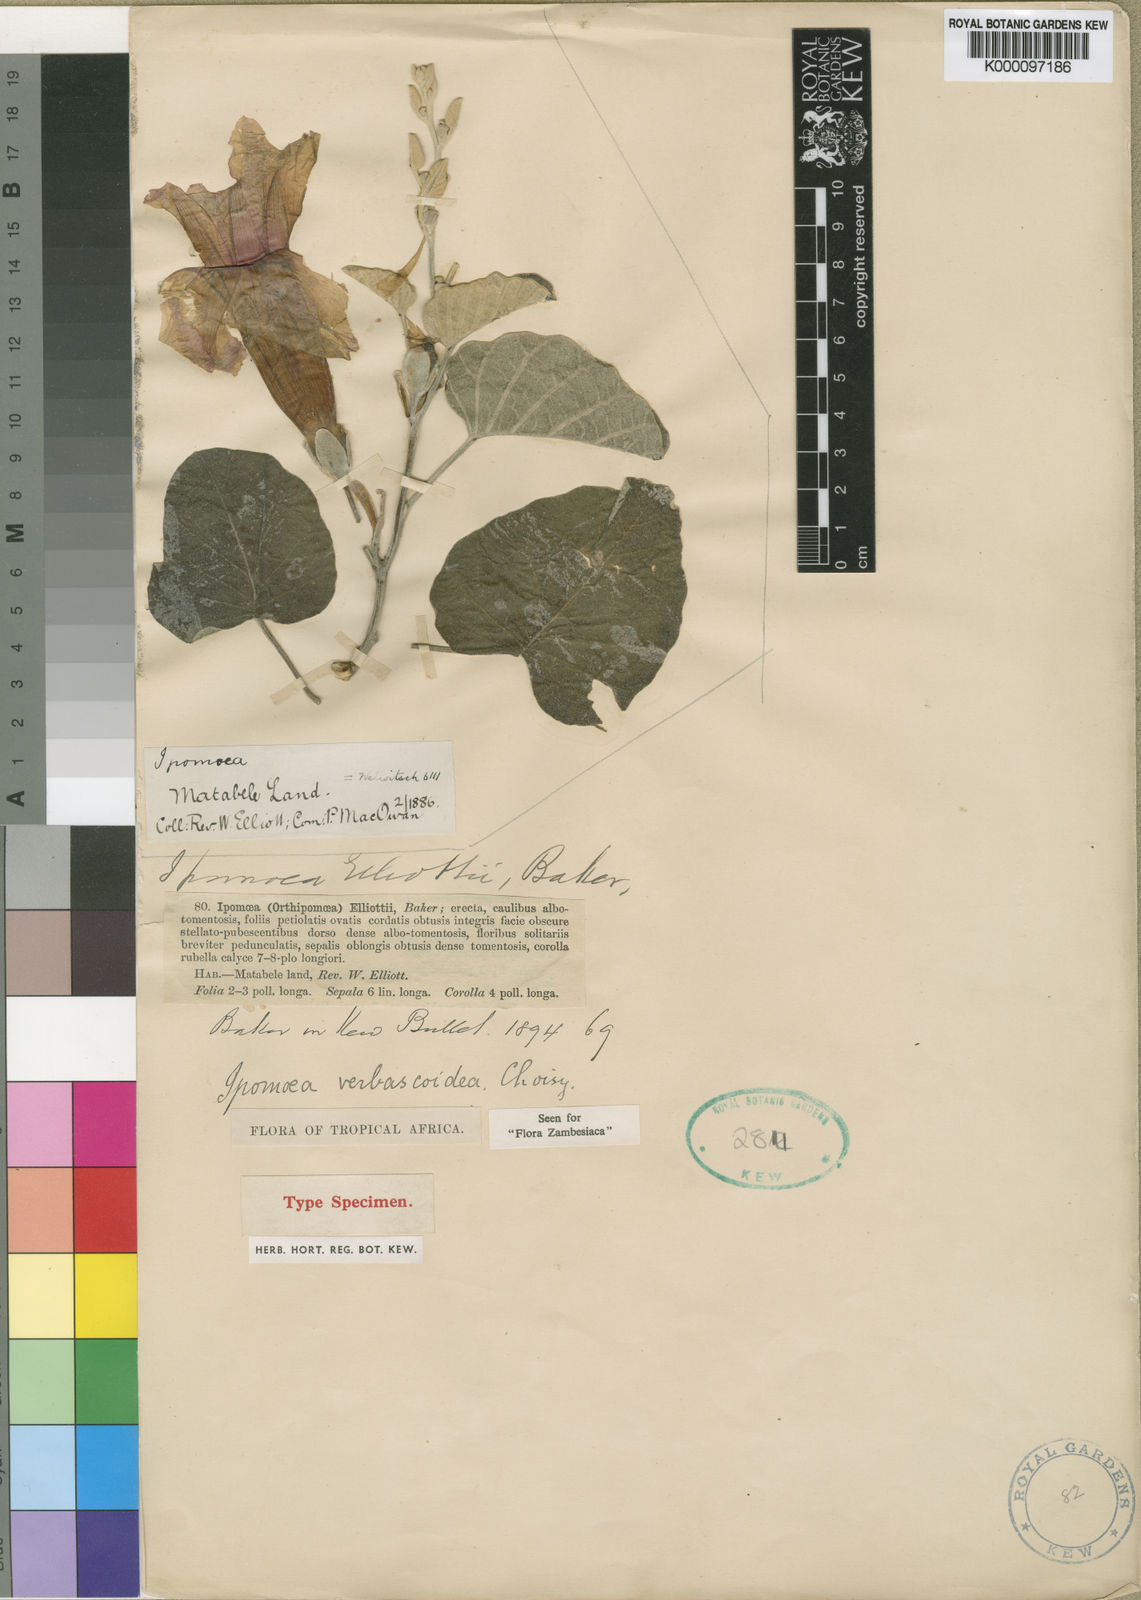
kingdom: Plantae
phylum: Tracheophyta
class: Magnoliopsida
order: Solanales
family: Convolvulaceae
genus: Ipomoea
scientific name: Ipomoea verbascoidea
